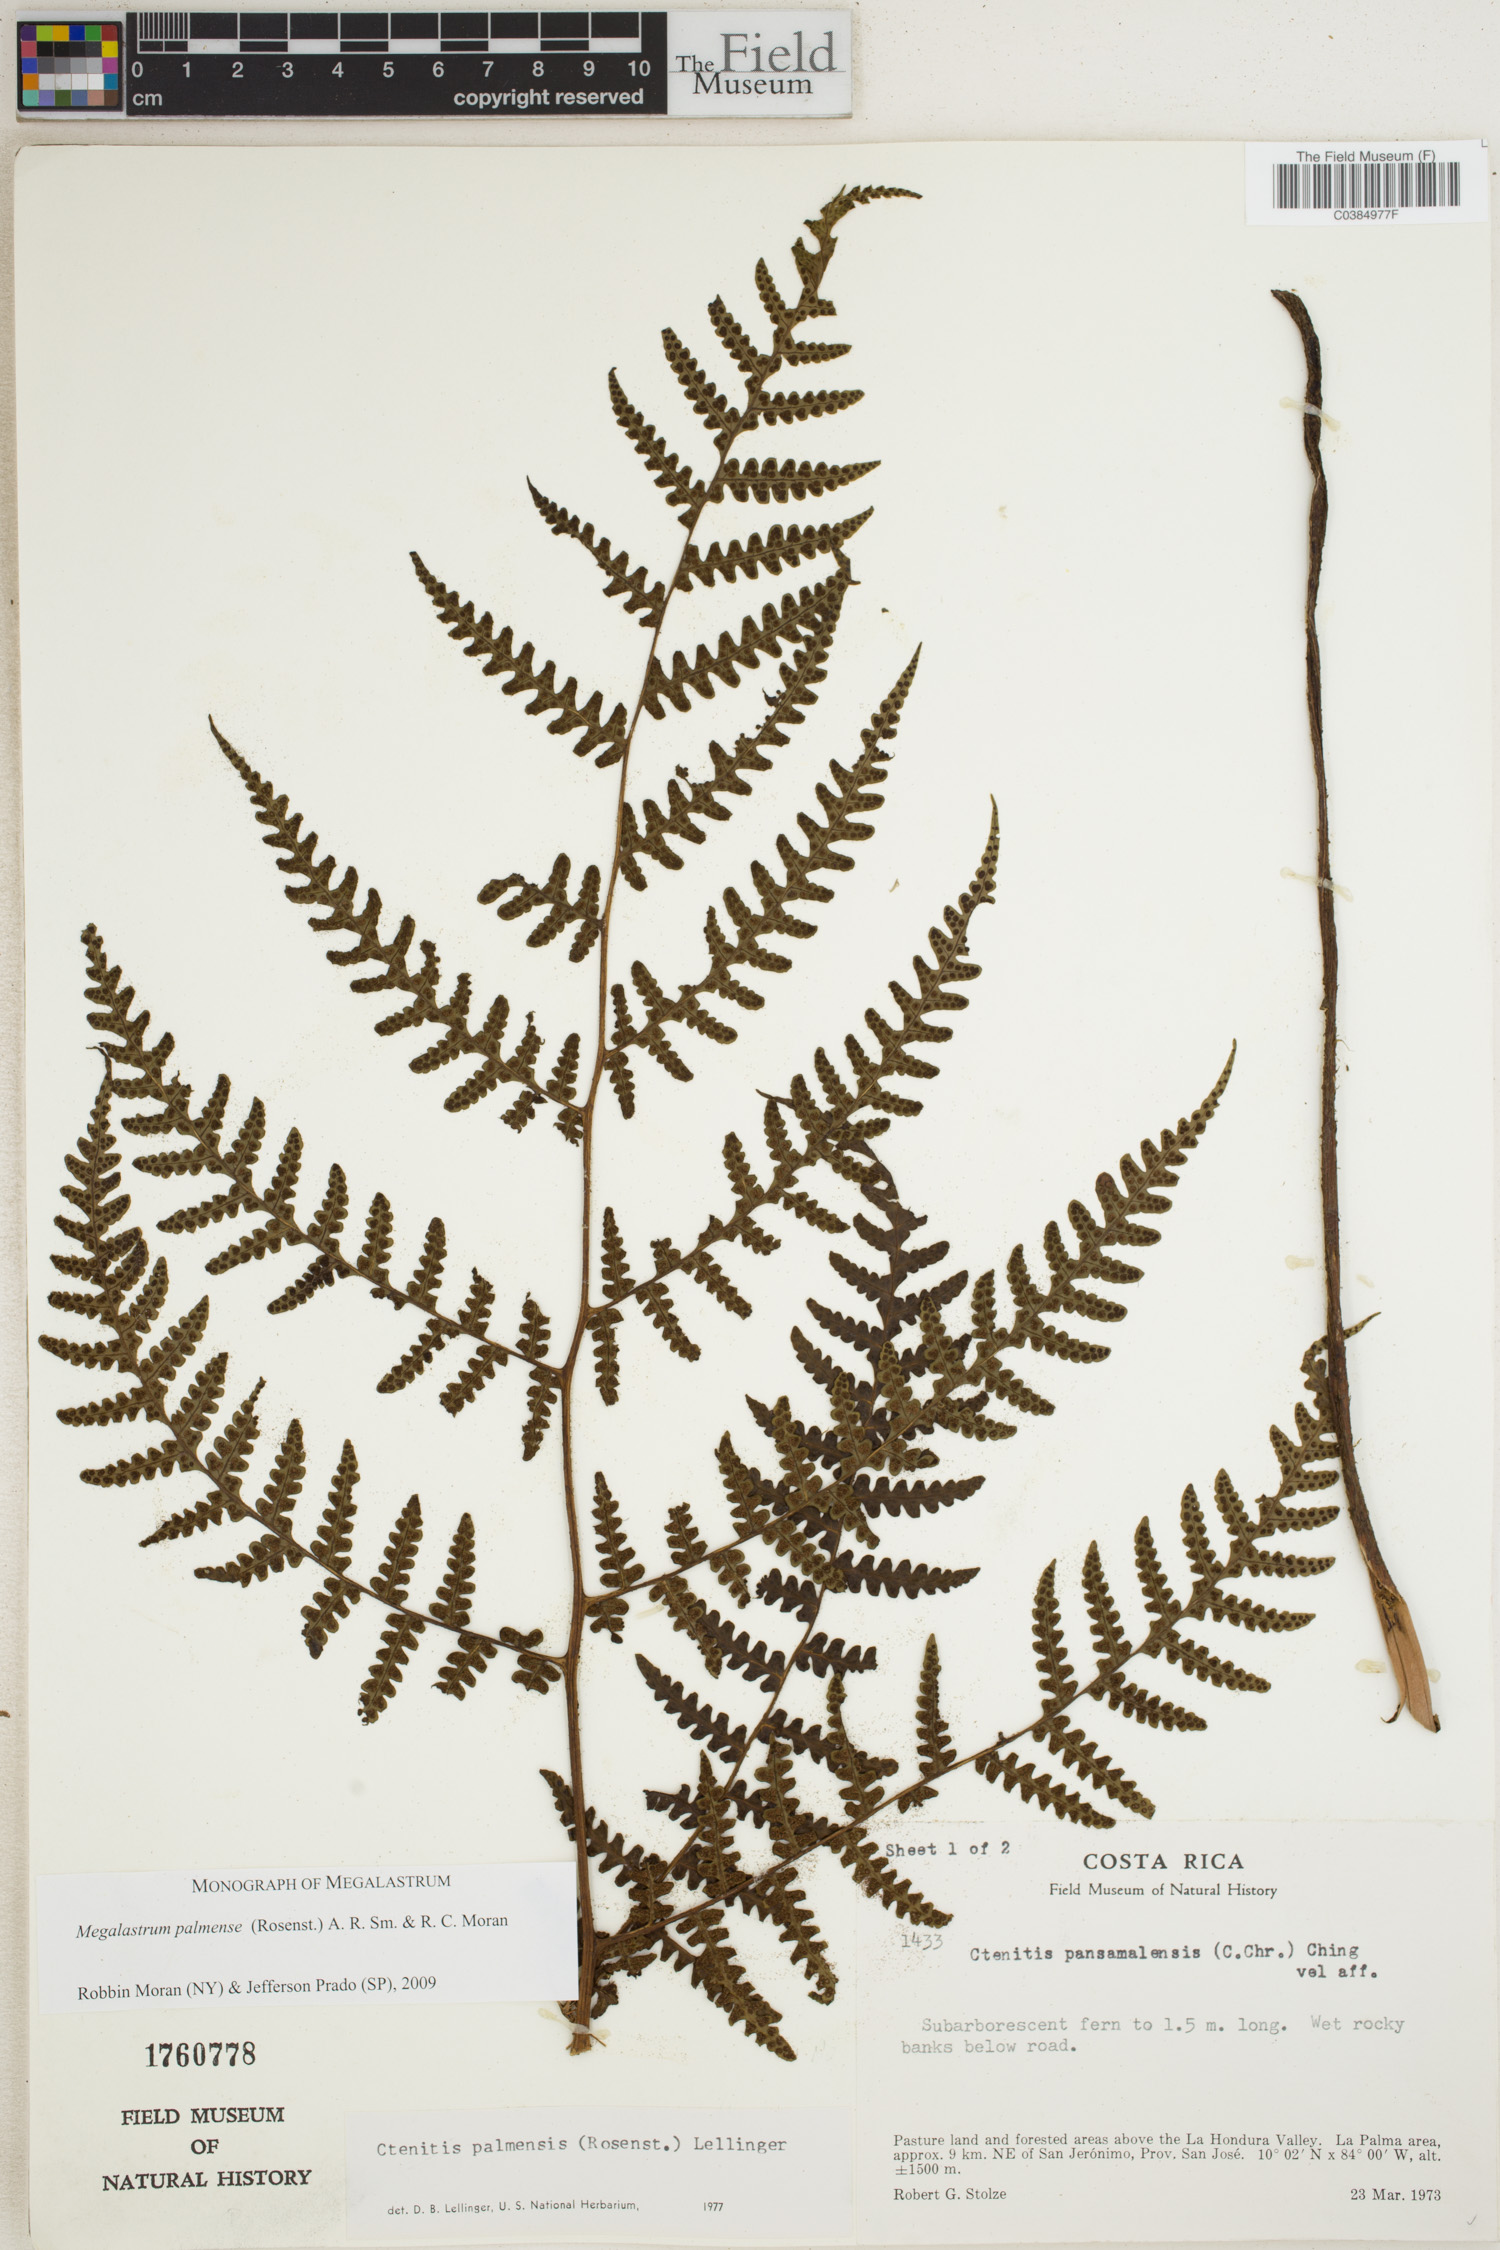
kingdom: Plantae
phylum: Tracheophyta
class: Polypodiopsida
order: Polypodiales
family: Dryopteridaceae
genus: Megalastrum
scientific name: Megalastrum palmense
